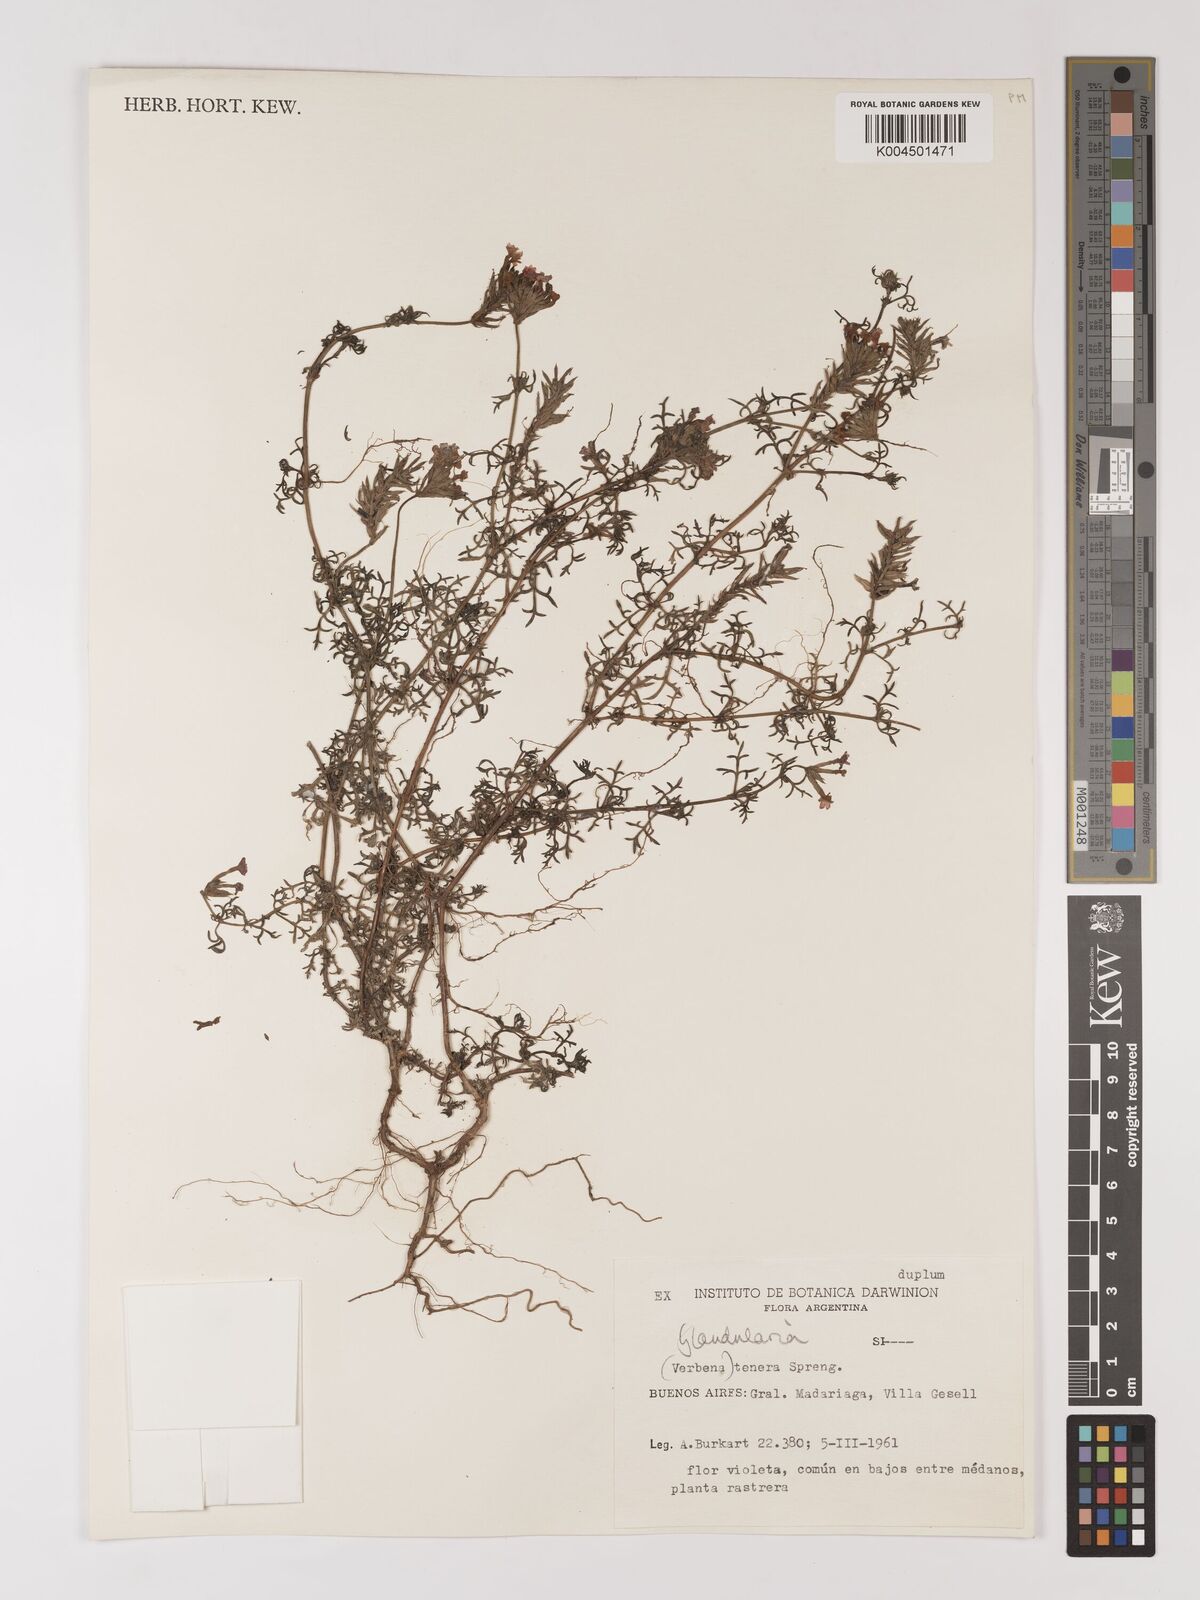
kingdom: Plantae
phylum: Tracheophyta
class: Magnoliopsida
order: Lamiales
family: Verbenaceae
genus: Verbena
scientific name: Verbena tenera
